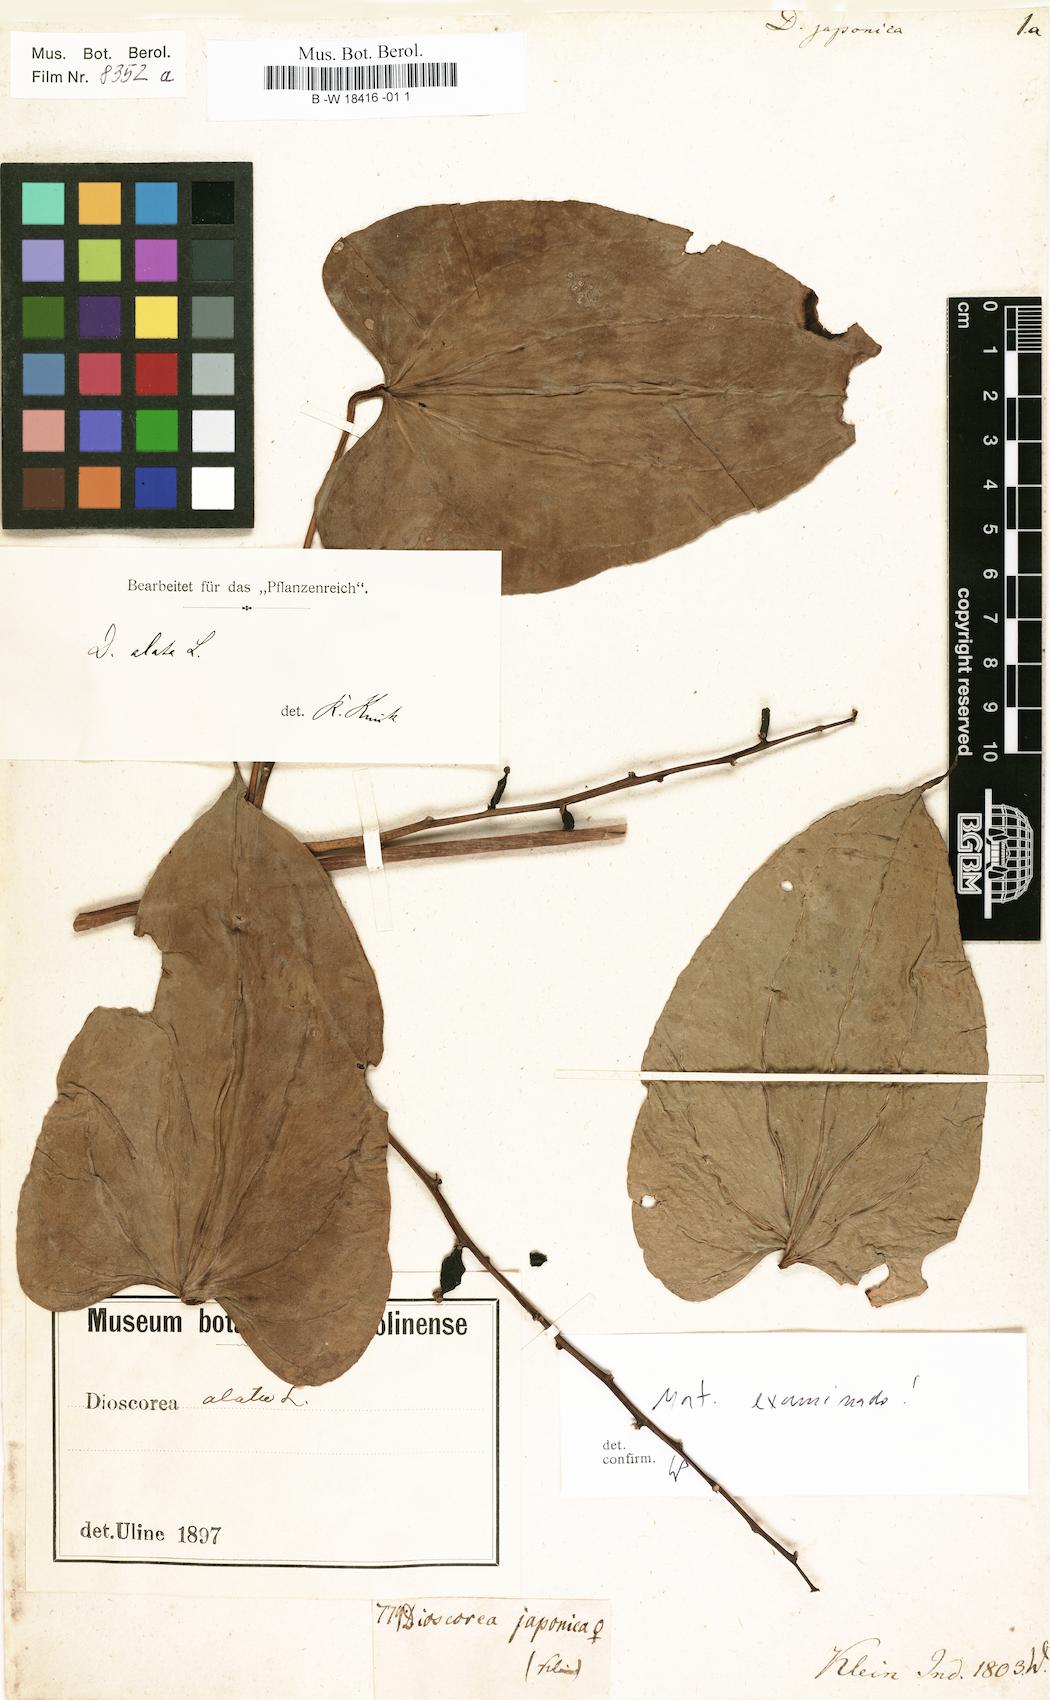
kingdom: Plantae
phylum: Tracheophyta
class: Liliopsida
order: Dioscoreales
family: Dioscoreaceae
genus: Dioscorea
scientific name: Dioscorea japonica
